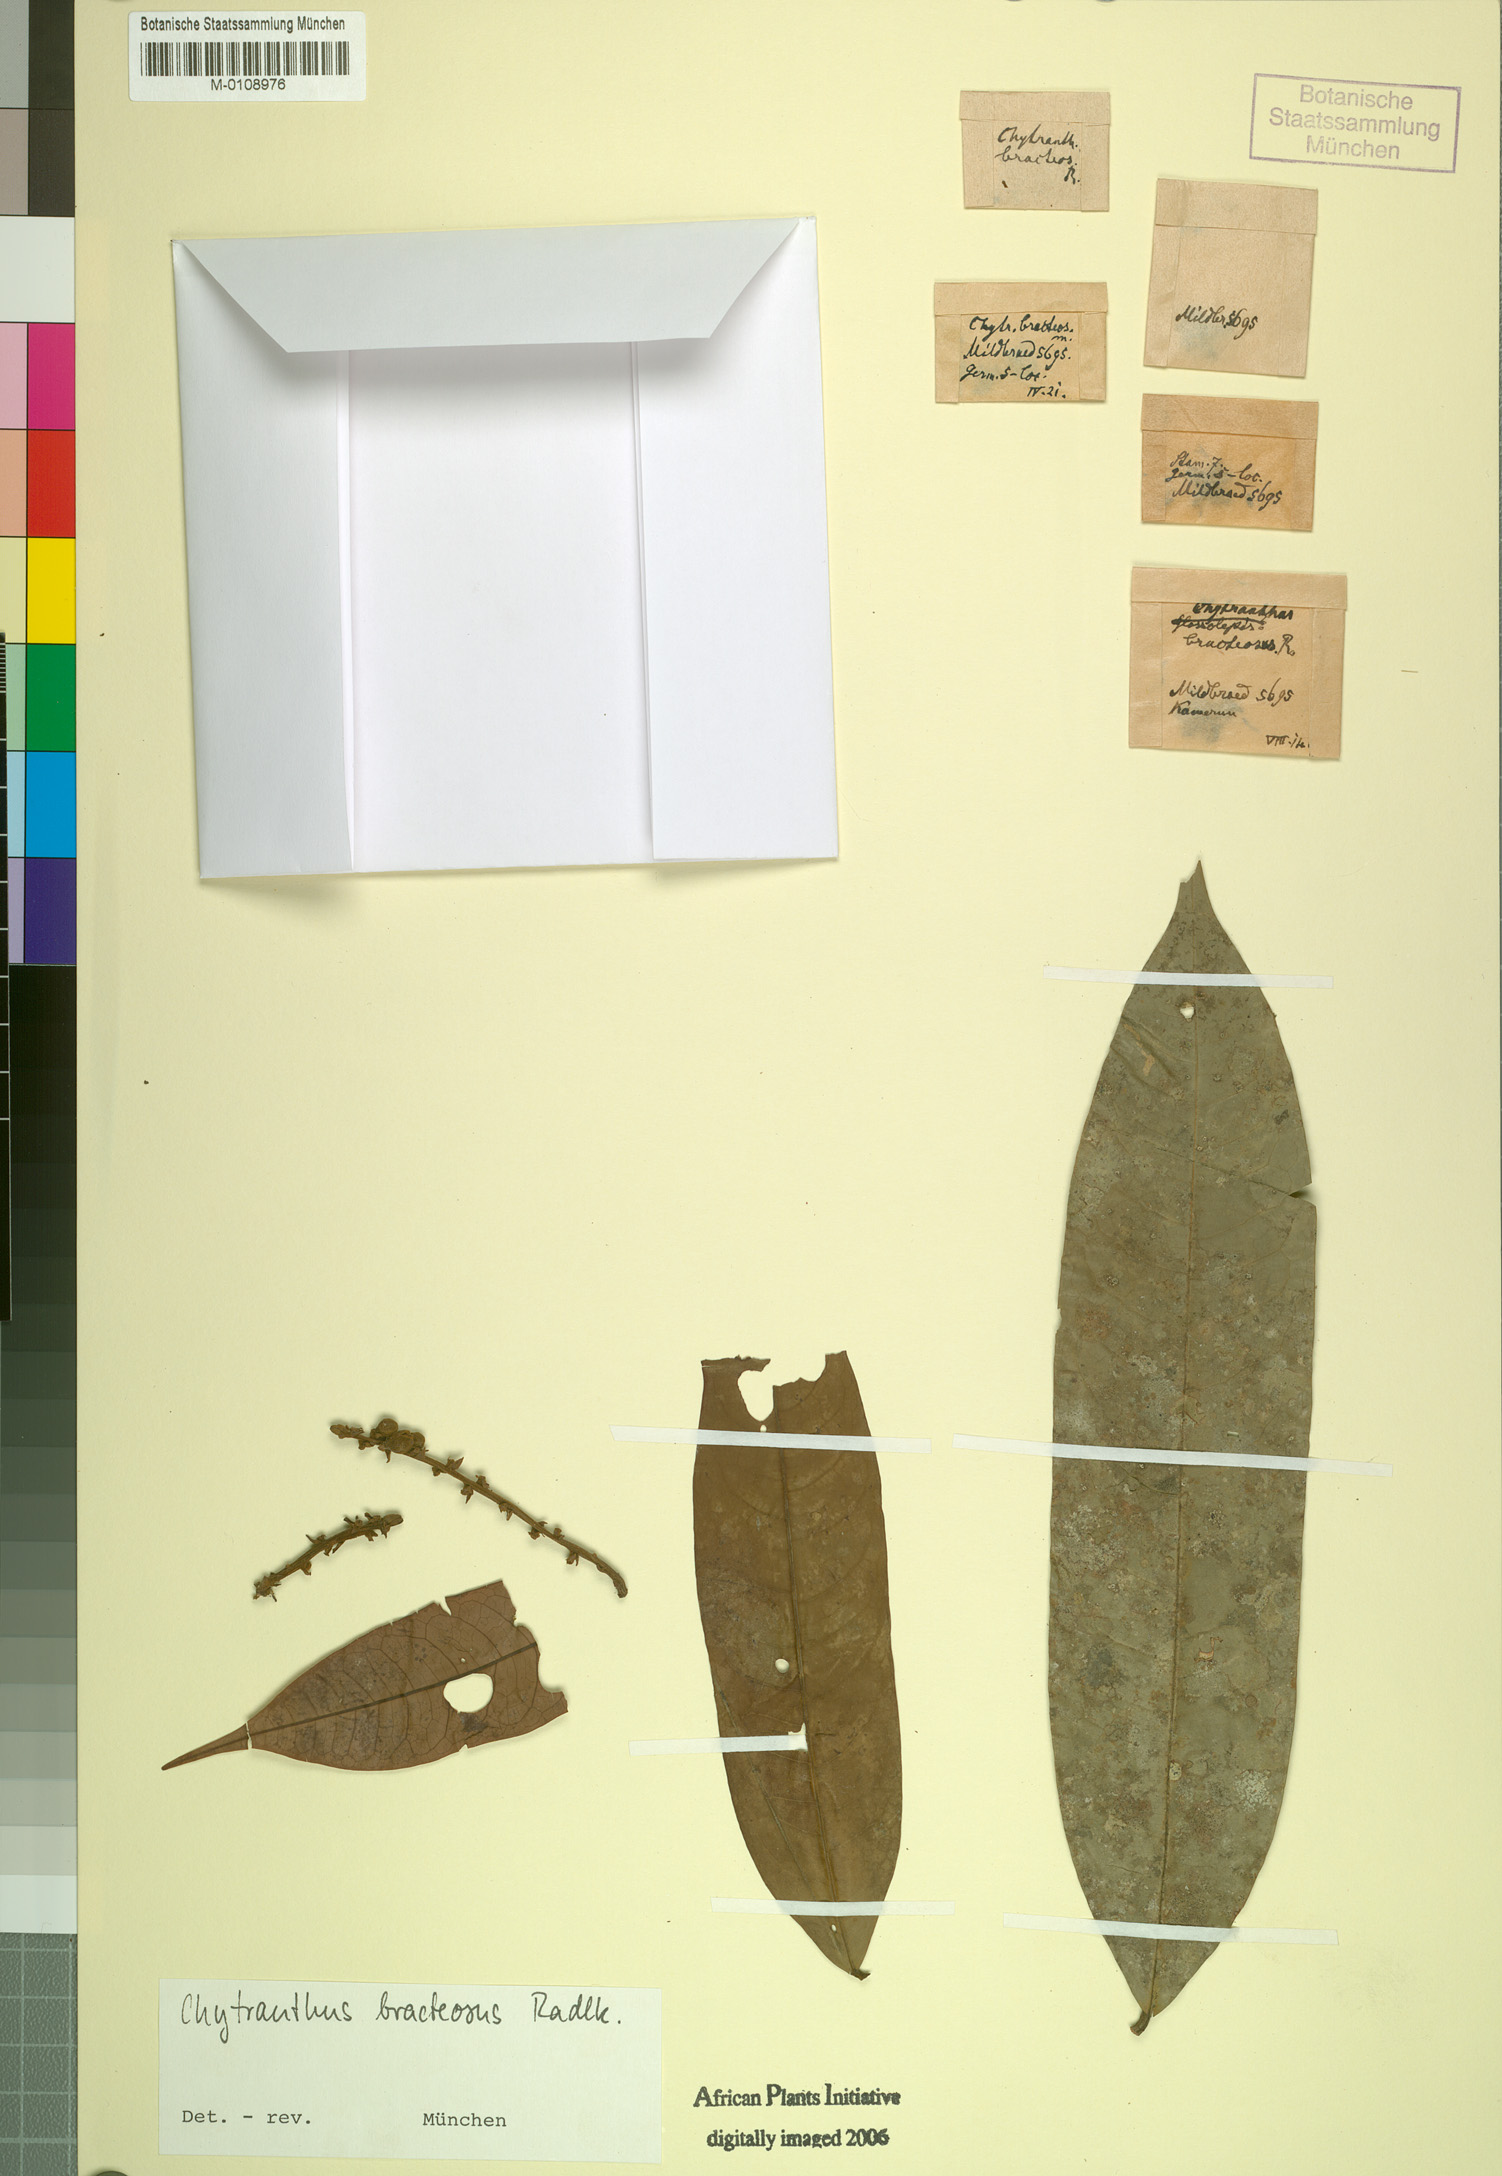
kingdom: Plantae
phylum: Tracheophyta
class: Magnoliopsida
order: Sapindales
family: Sapindaceae
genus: Chytranthus
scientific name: Chytranthus angustifolius
